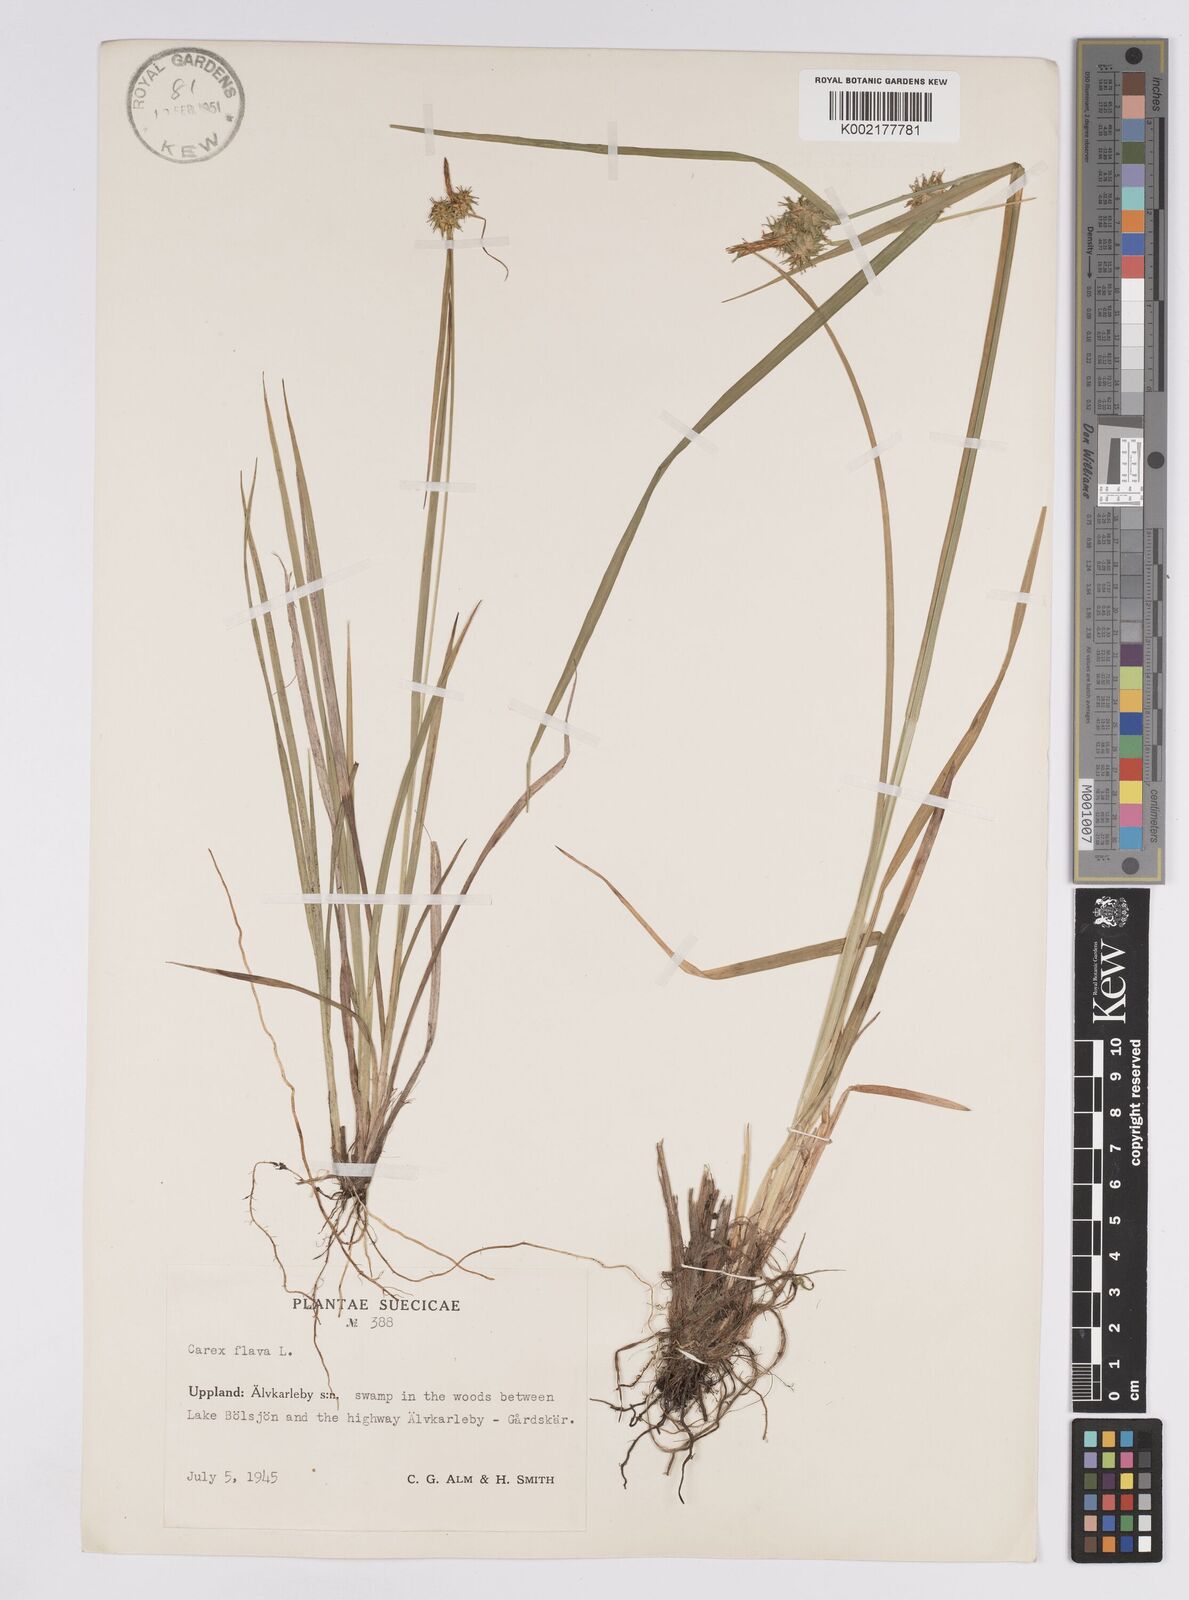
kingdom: Plantae
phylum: Tracheophyta
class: Liliopsida
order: Poales
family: Cyperaceae
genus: Carex
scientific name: Carex flava
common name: Large yellow-sedge
